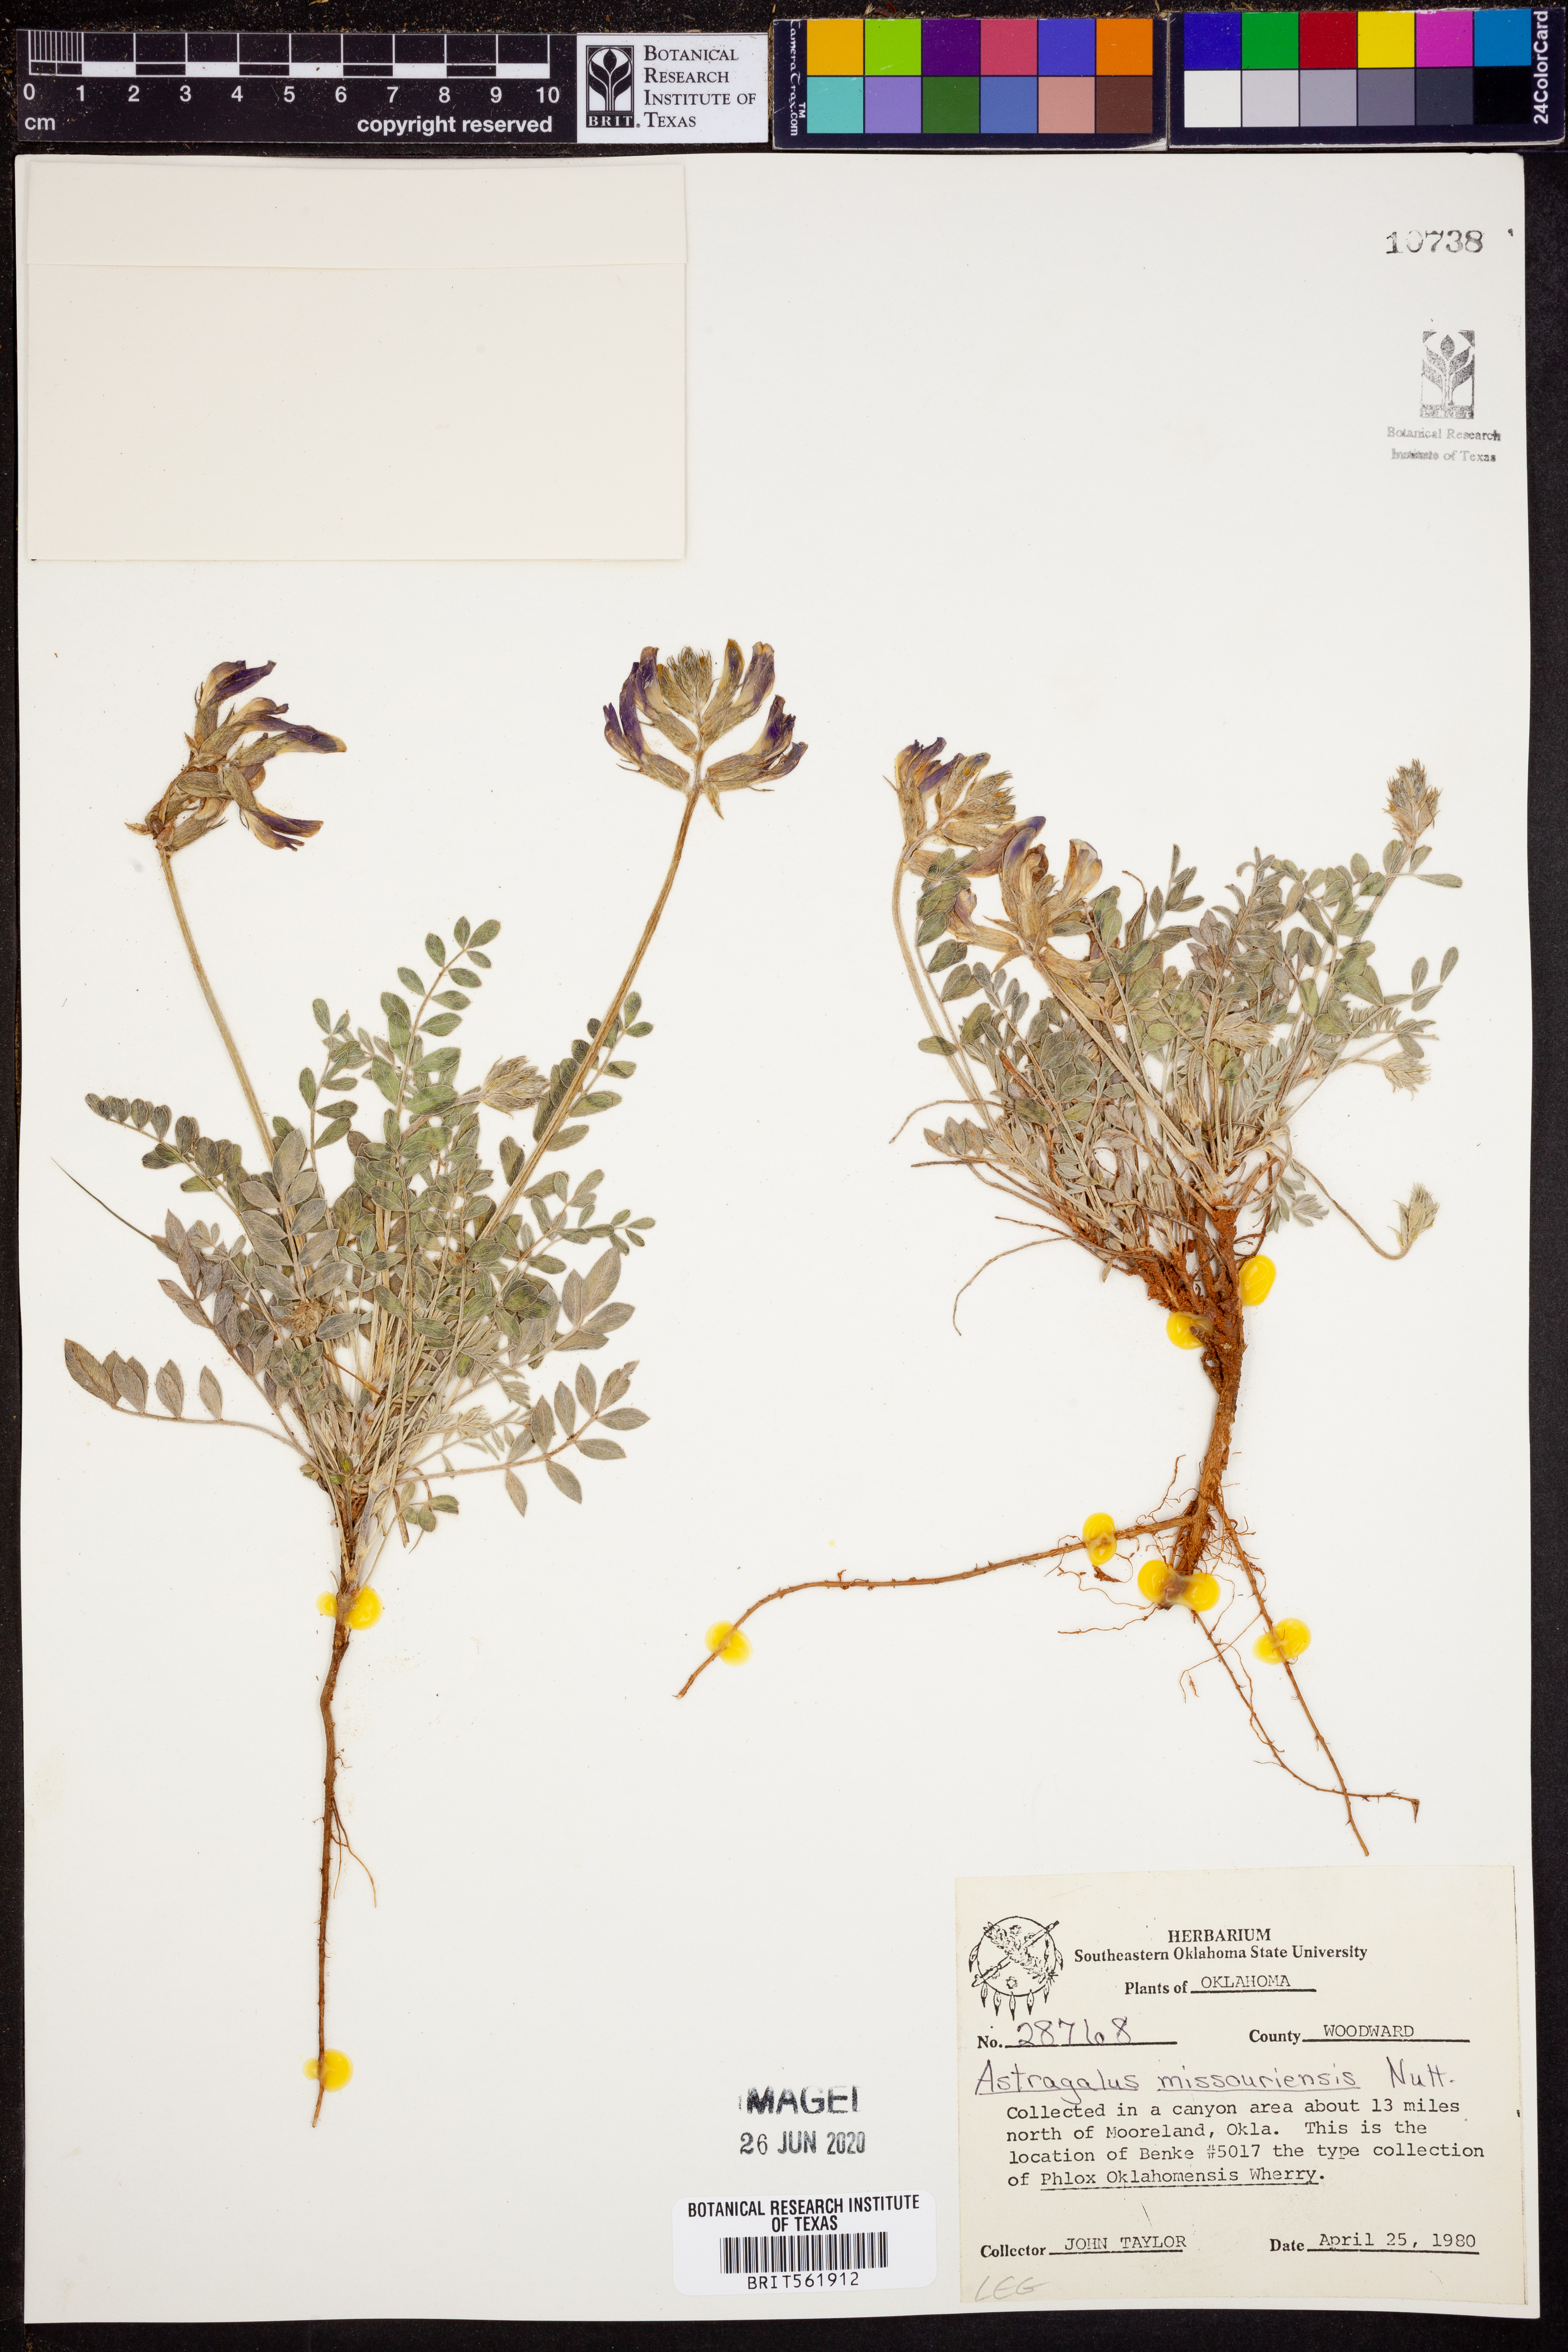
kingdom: Plantae
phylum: Tracheophyta
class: Magnoliopsida
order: Fabales
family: Fabaceae
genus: Astragalus
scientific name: Astragalus missouriensis
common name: Missouri milk-vetch
